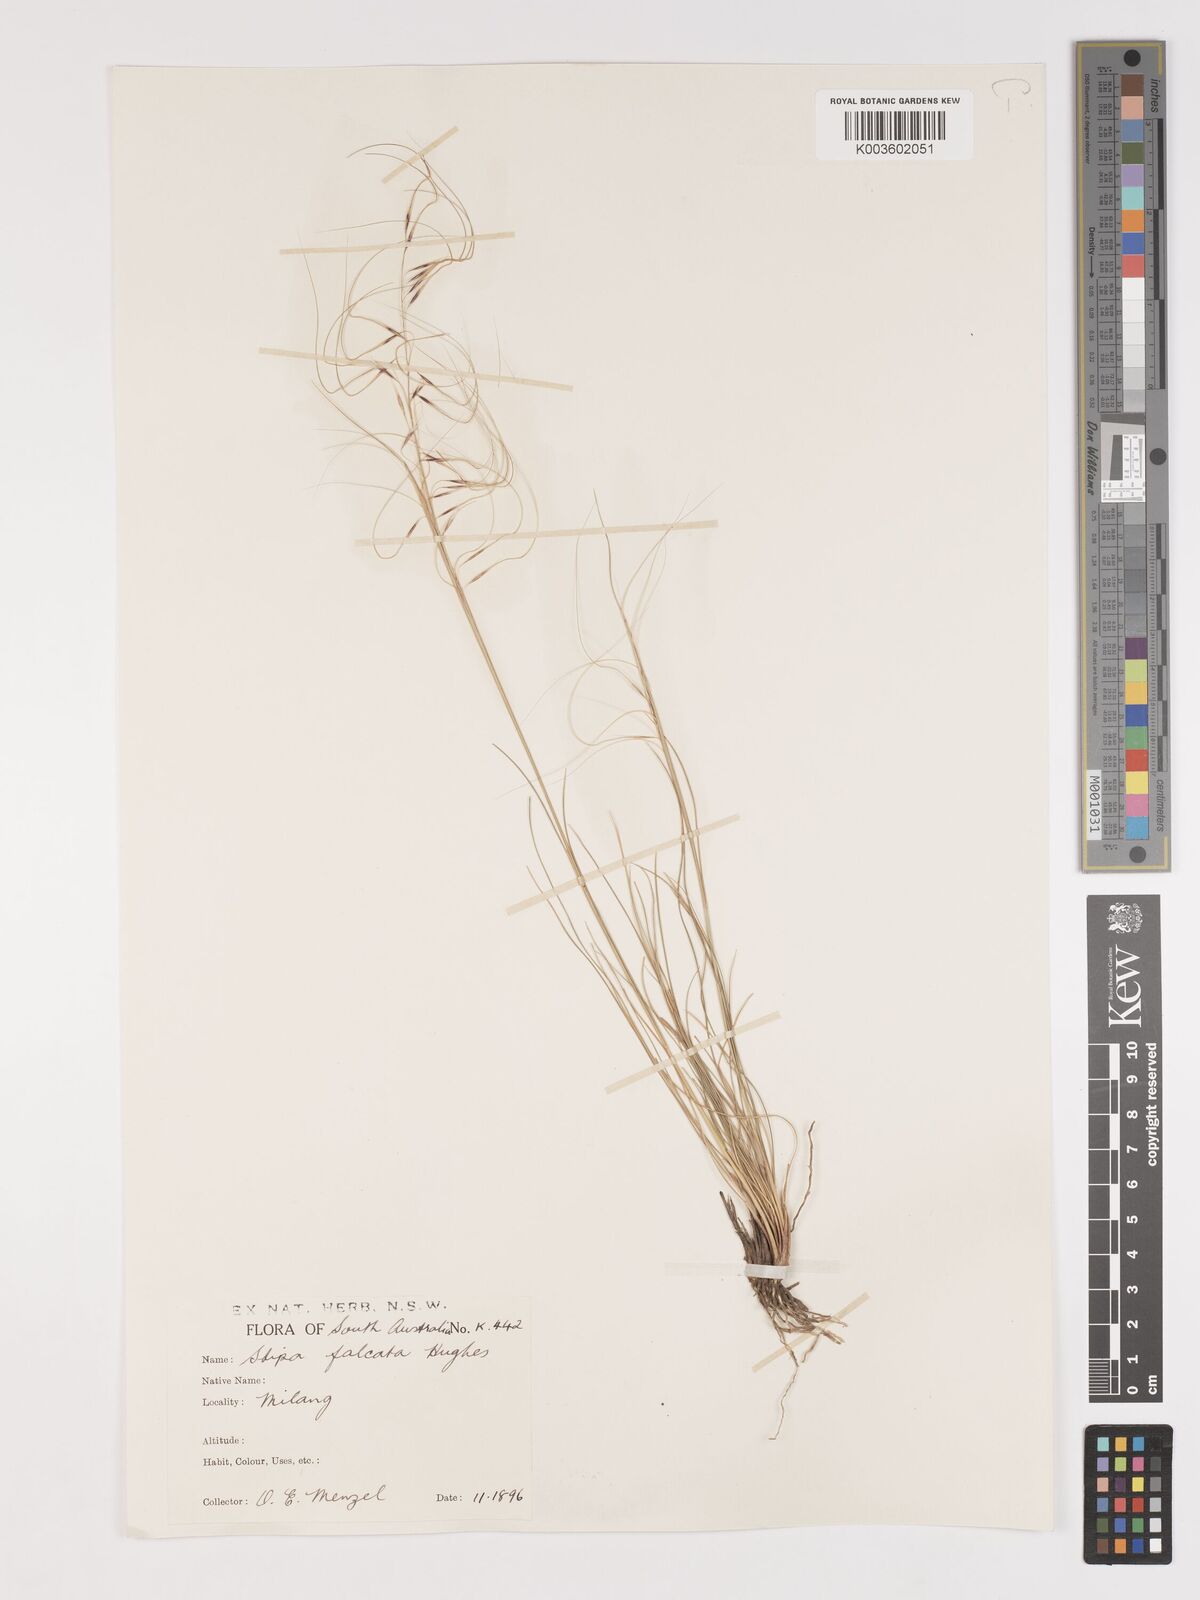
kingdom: Plantae
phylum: Tracheophyta
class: Liliopsida
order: Poales
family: Poaceae
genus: Austrostipa
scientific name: Austrostipa scabra
